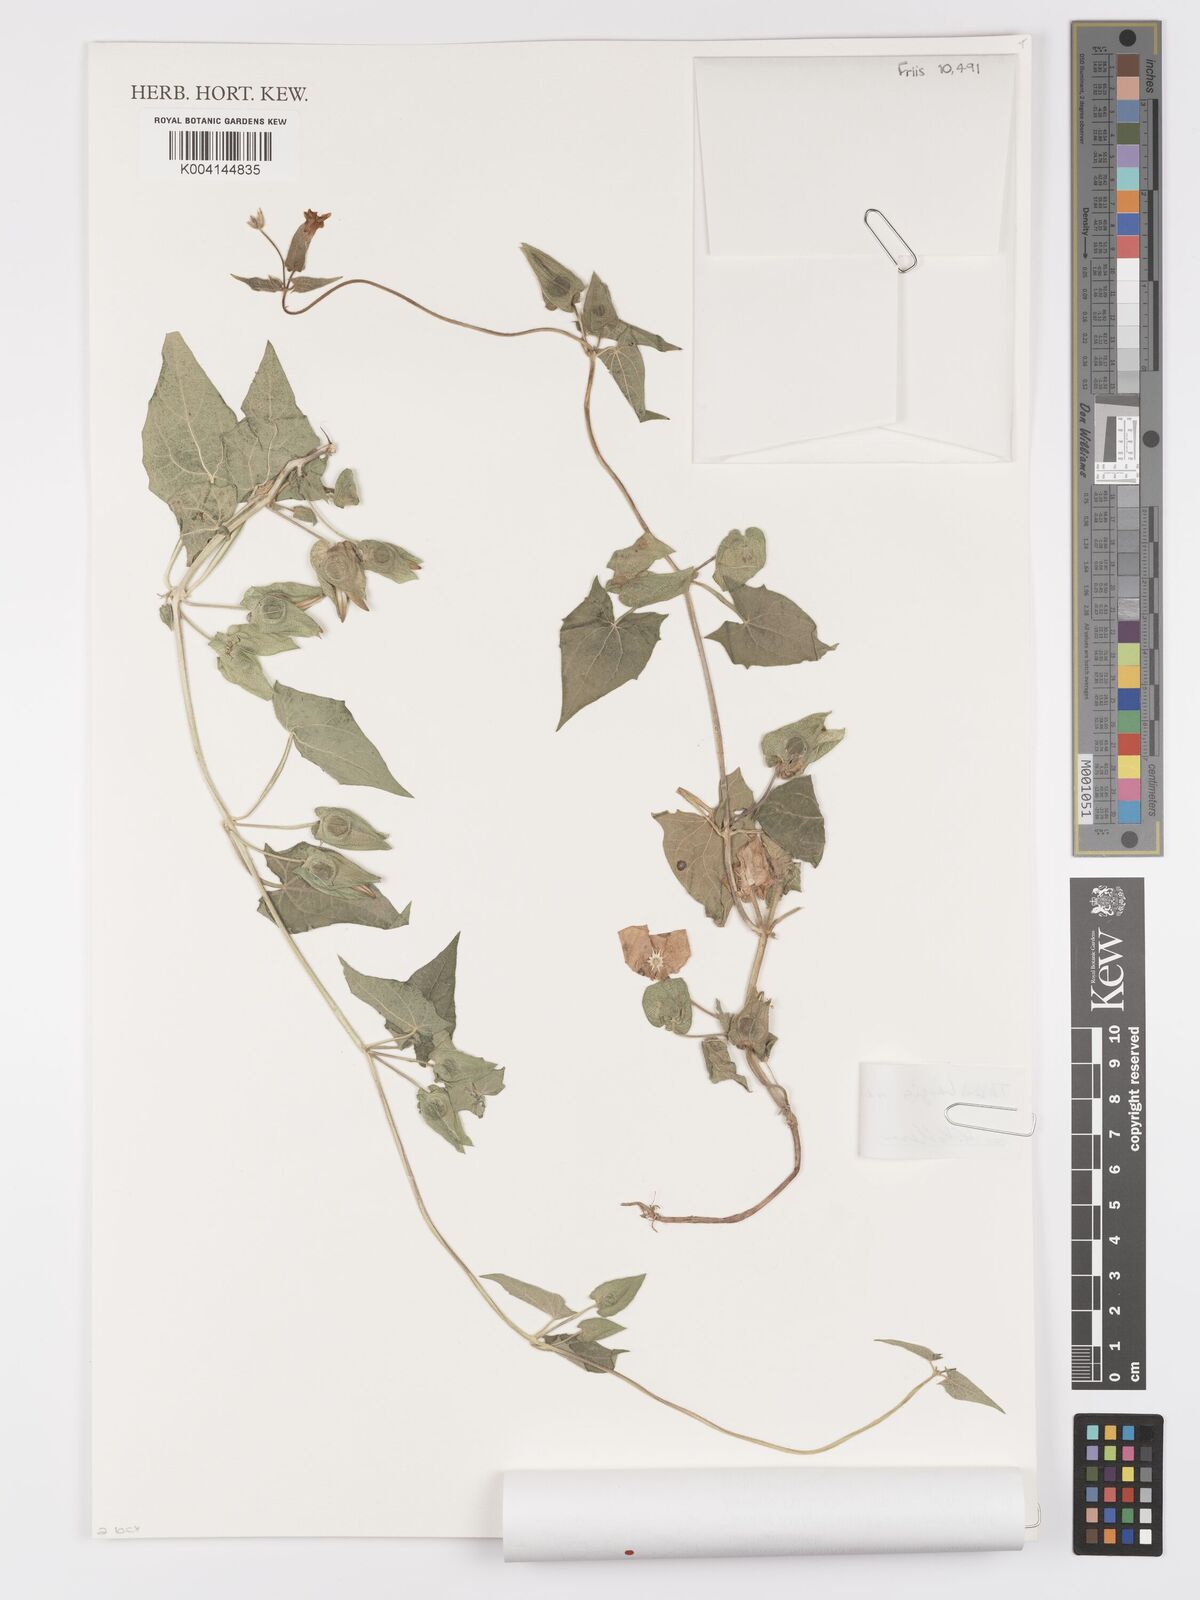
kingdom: Plantae
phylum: Tracheophyta
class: Magnoliopsida
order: Lamiales
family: Acanthaceae
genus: Thunbergia
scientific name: Thunbergia reticulata
